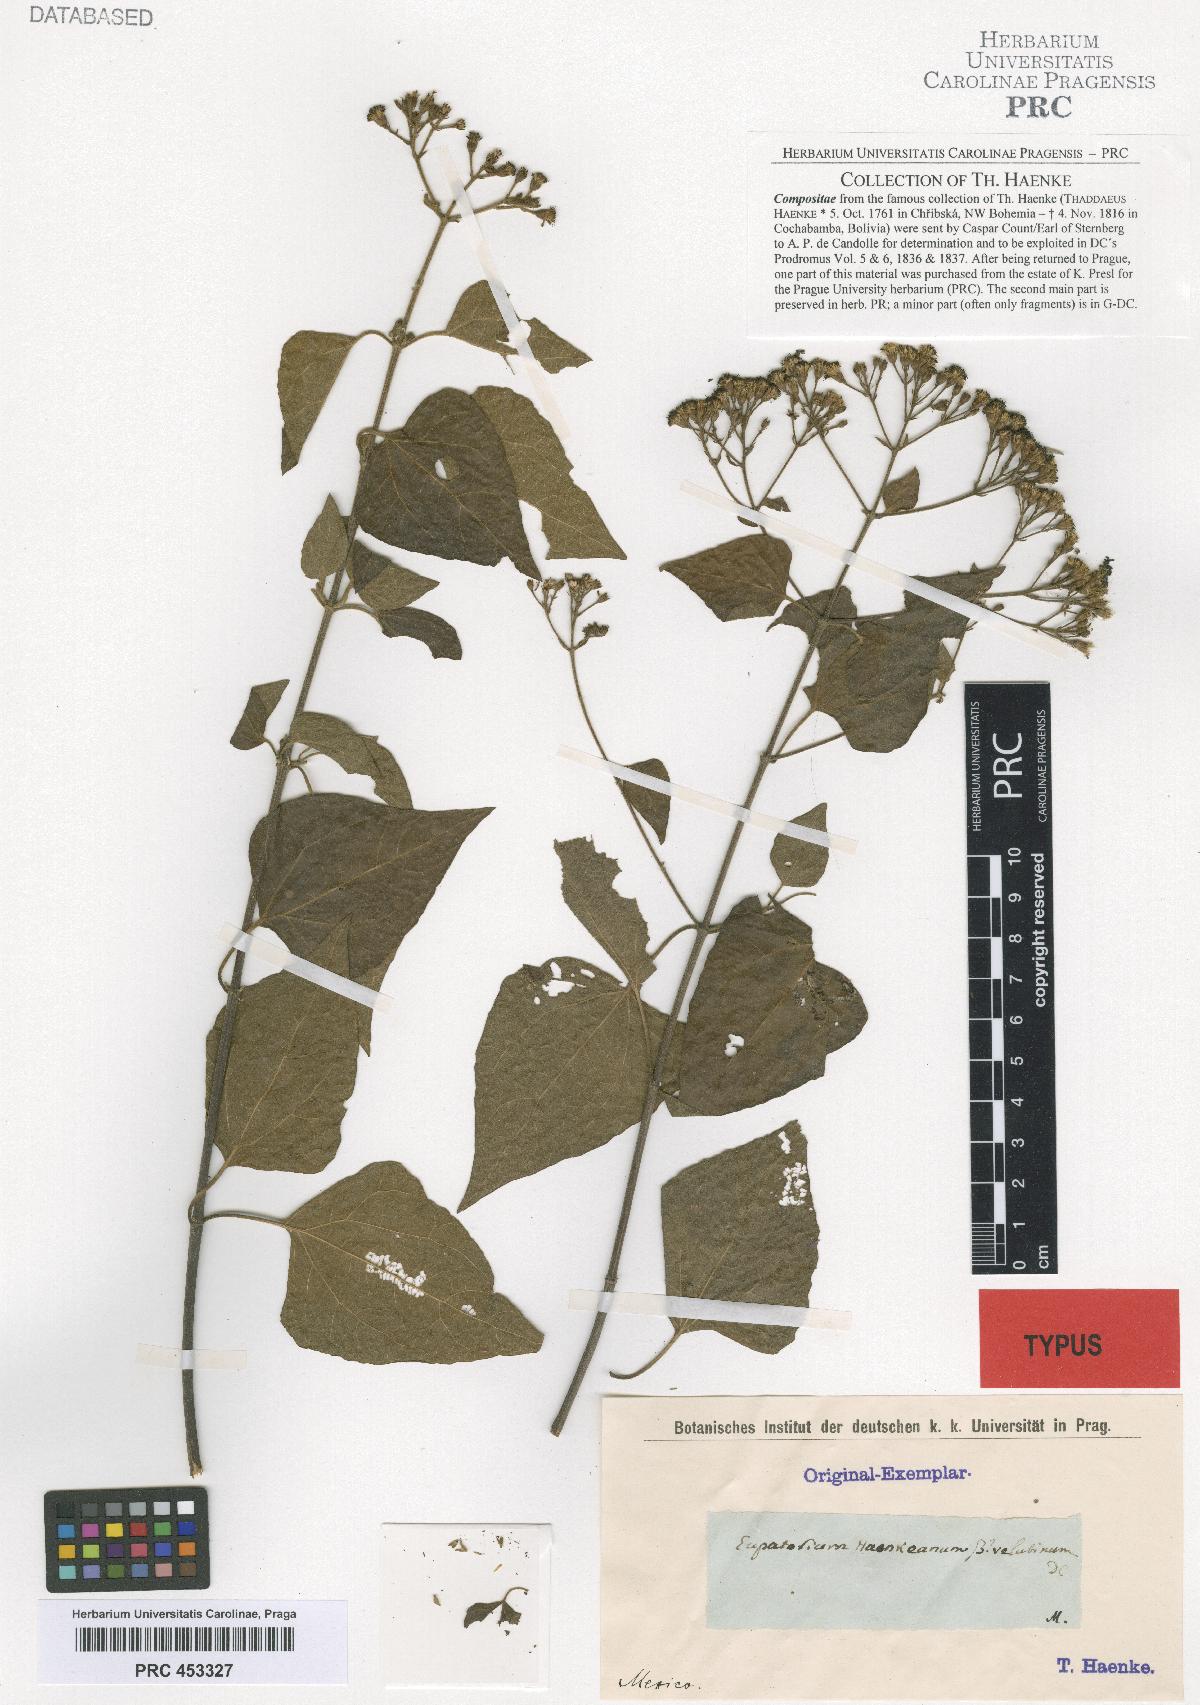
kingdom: Plantae
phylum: Tracheophyta
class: Magnoliopsida
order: Asterales
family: Asteraceae
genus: Chromolaena
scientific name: Chromolaena haenkeana
